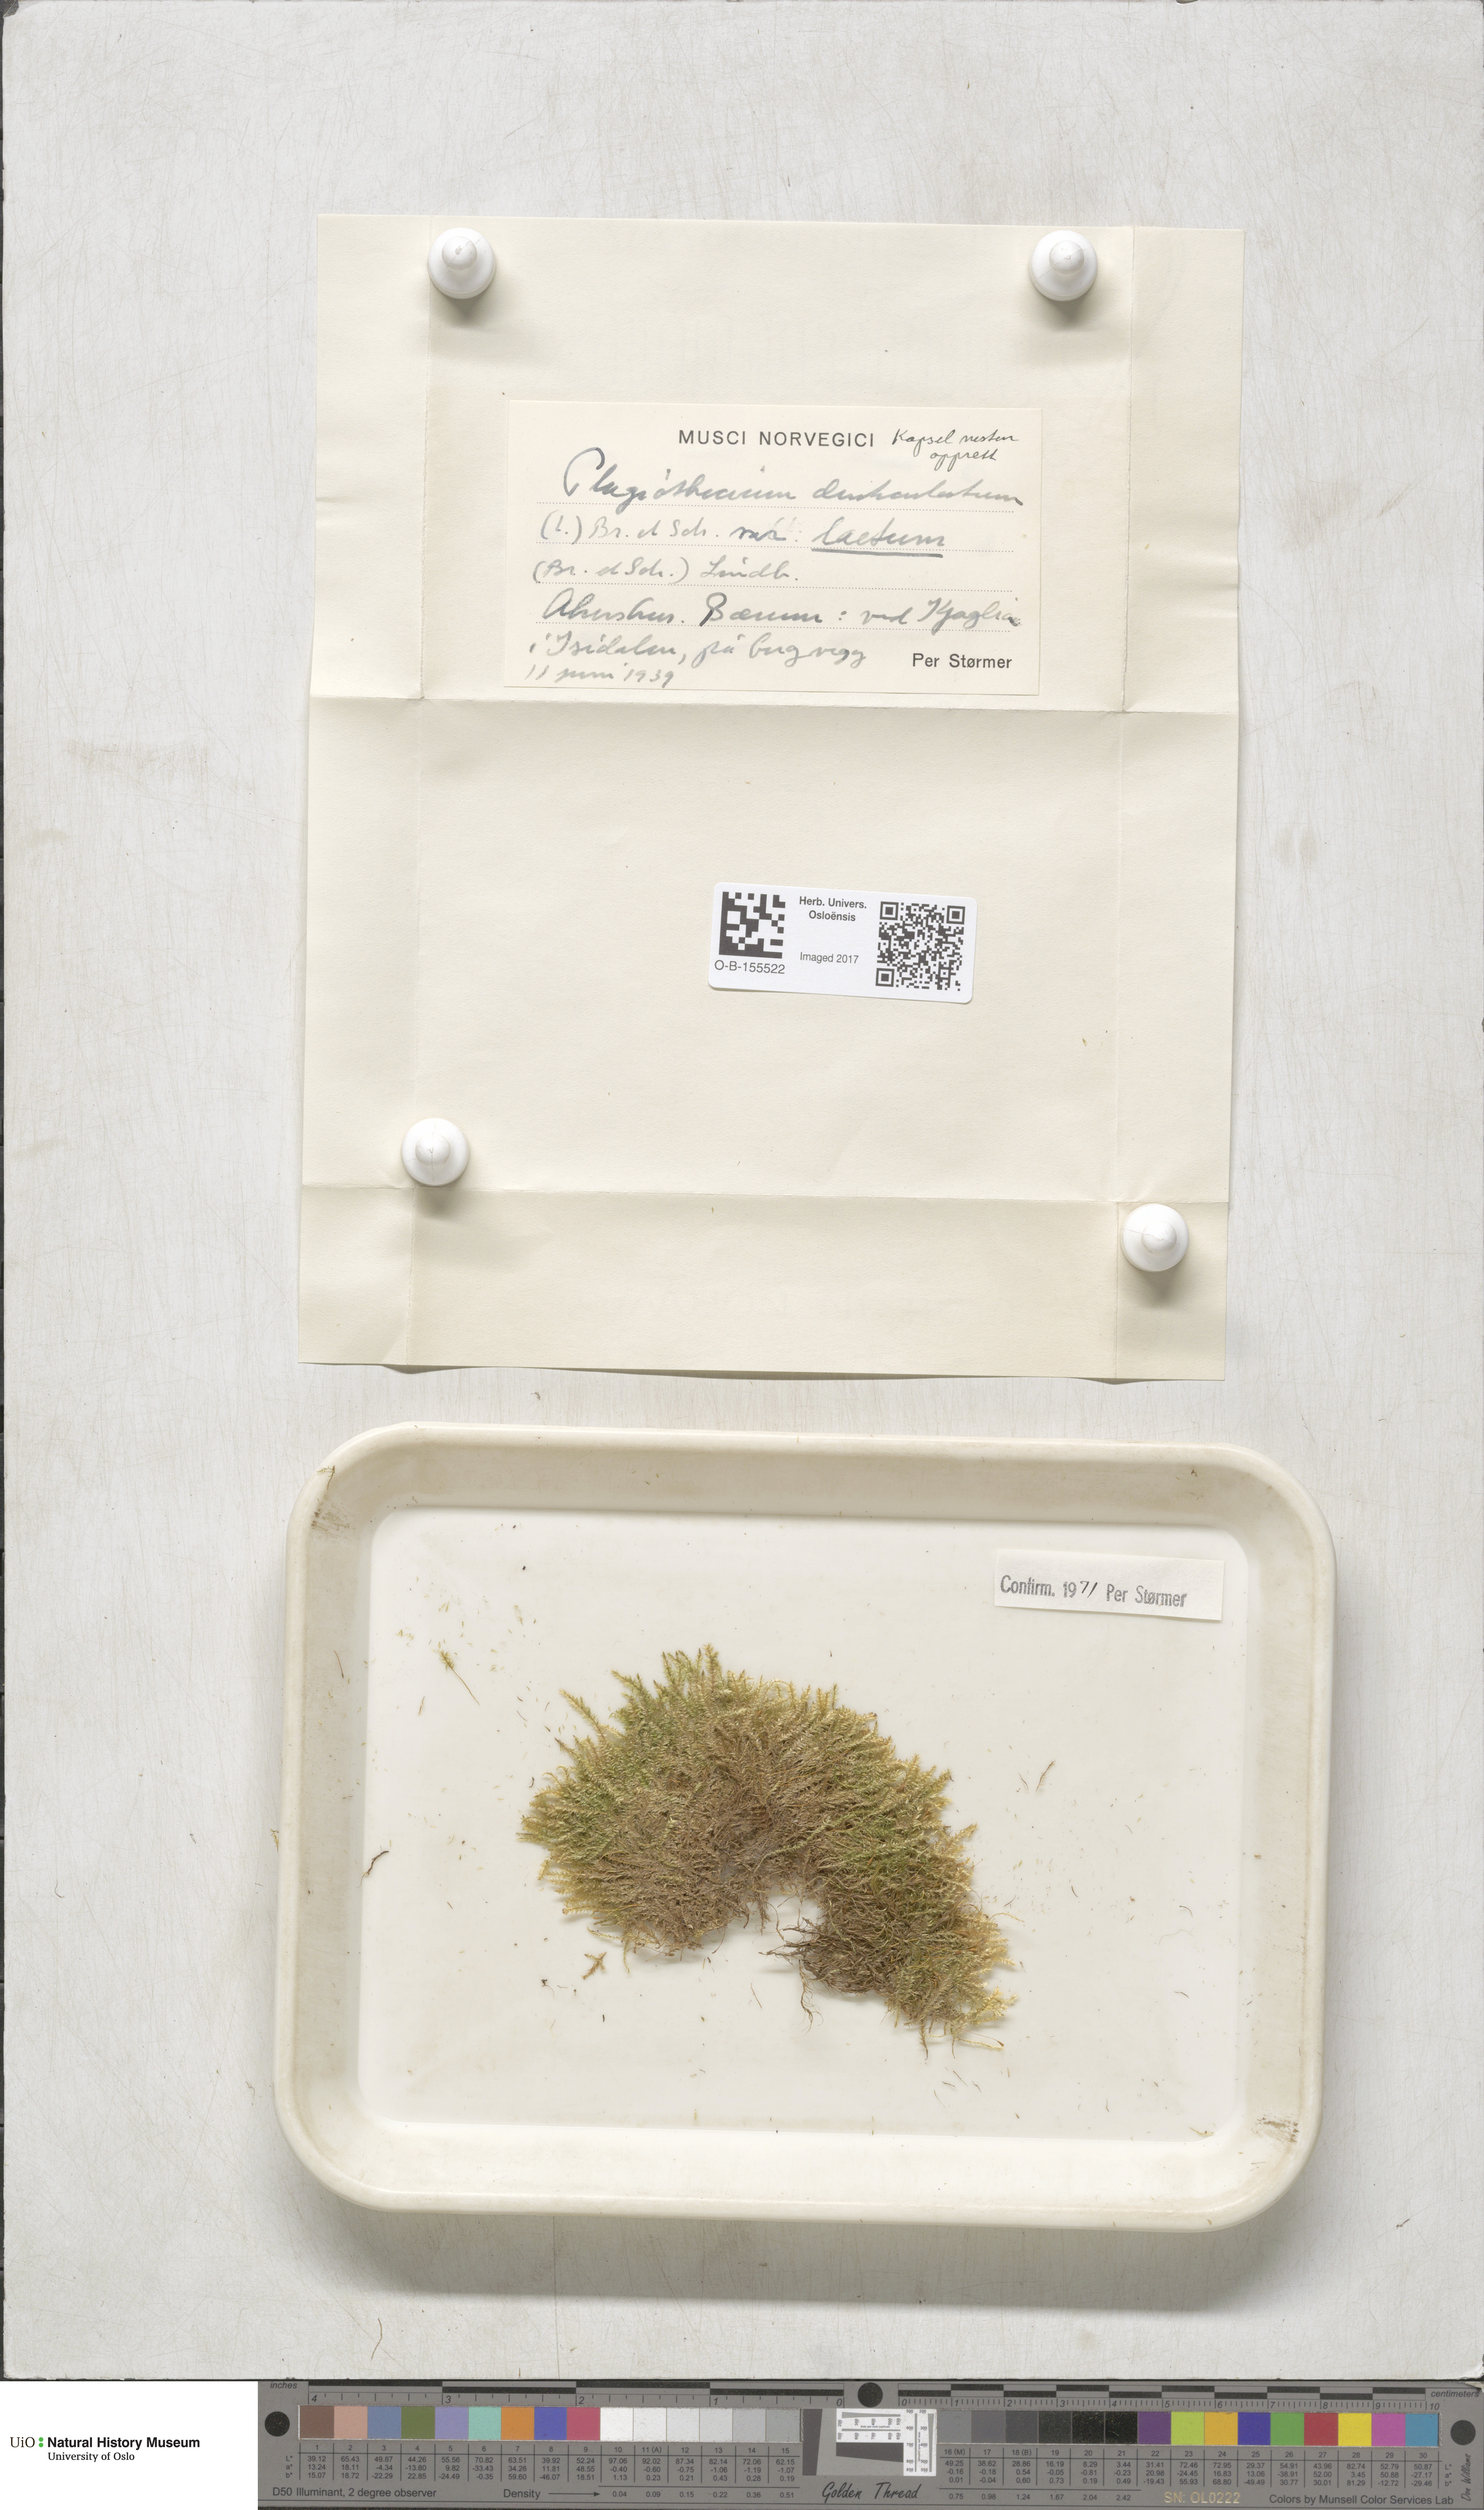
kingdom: Plantae
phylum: Bryophyta
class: Bryopsida
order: Hypnales
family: Plagiotheciaceae
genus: Plagiothecium
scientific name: Plagiothecium laetum
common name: Bright silk moss
